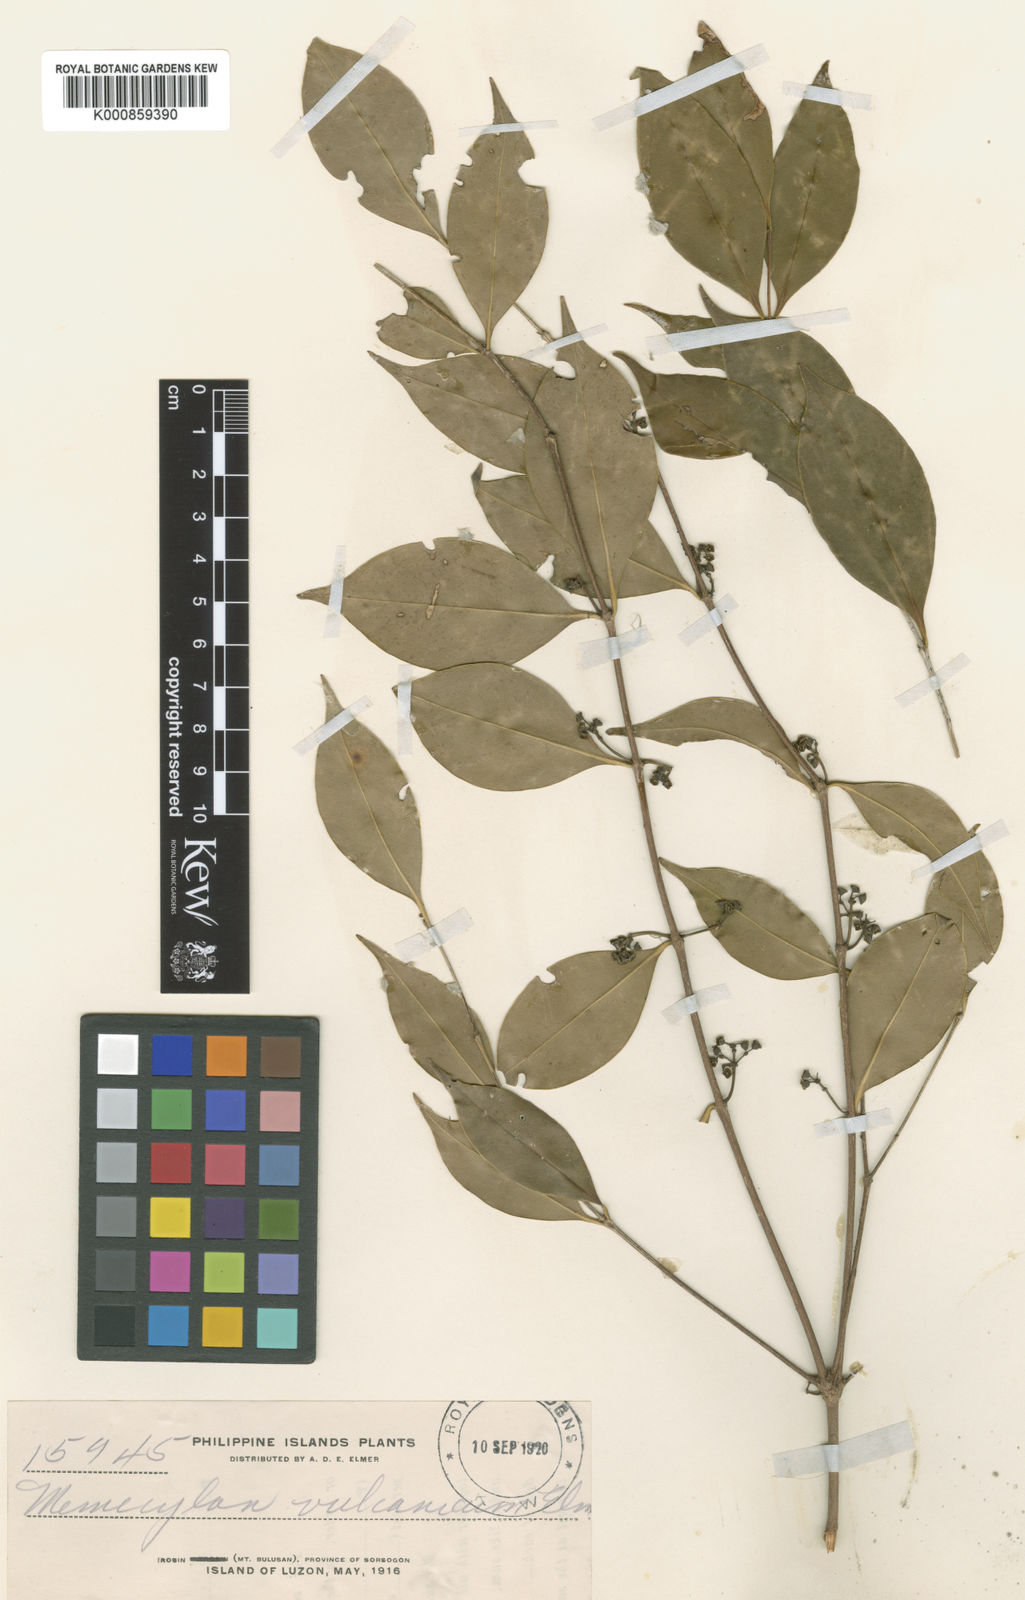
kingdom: Plantae
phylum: Tracheophyta
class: Magnoliopsida
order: Myrtales
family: Melastomataceae
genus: Memecylon
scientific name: Memecylon symplociforme
